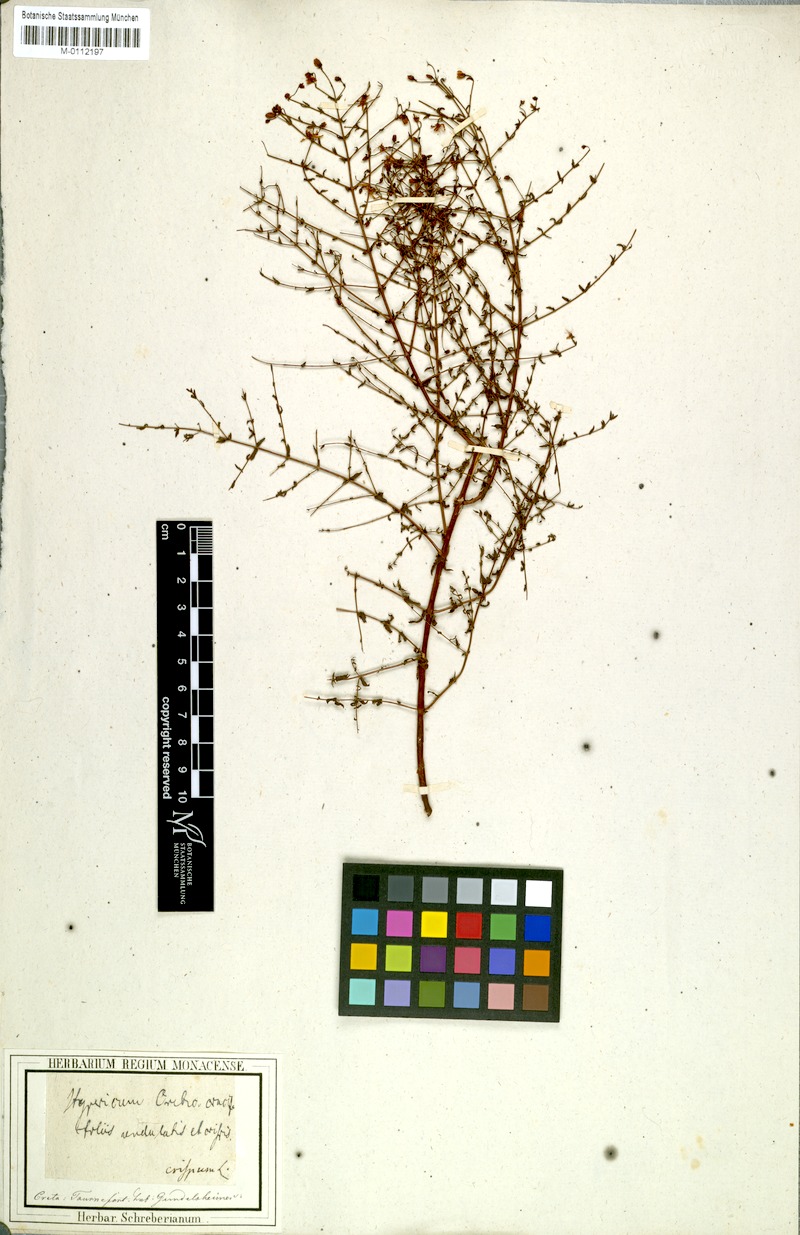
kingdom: Plantae
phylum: Tracheophyta
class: Magnoliopsida
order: Malpighiales
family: Hypericaceae
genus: Hypericum
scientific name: Hypericum tomentosum
